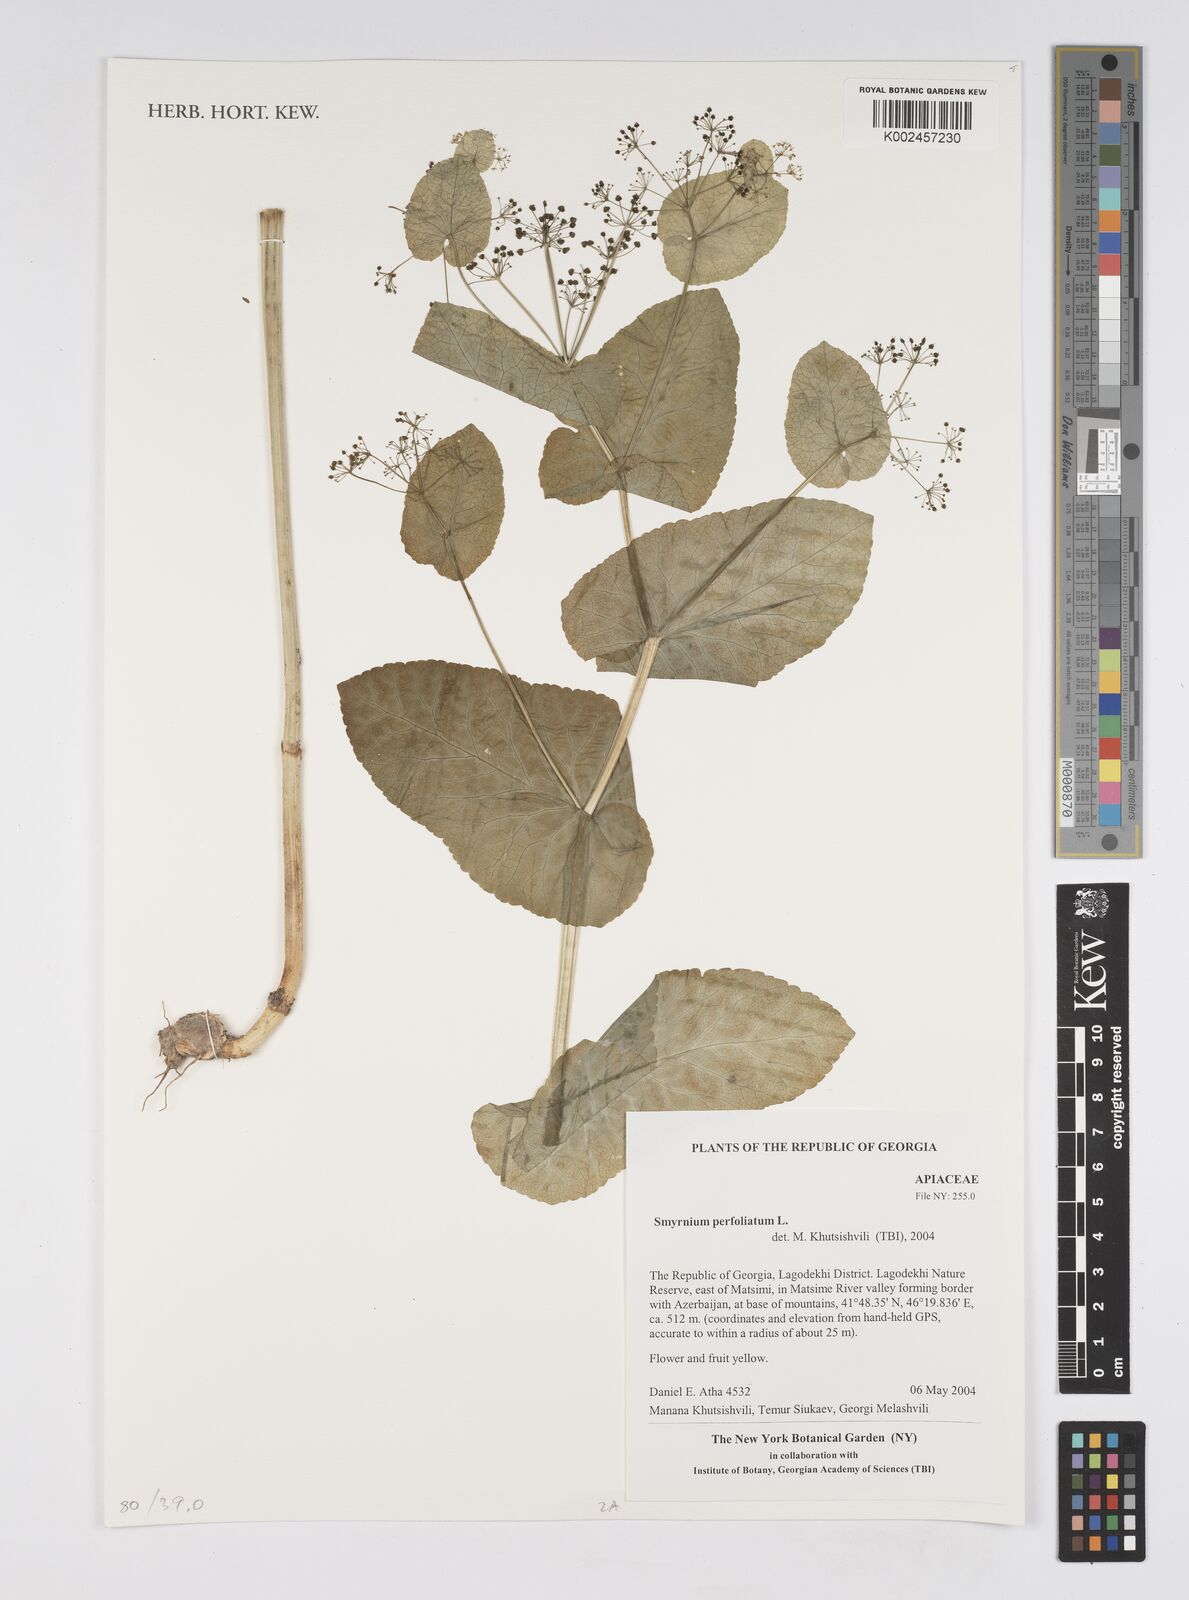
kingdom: Plantae
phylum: Tracheophyta
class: Magnoliopsida
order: Apiales
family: Apiaceae
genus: Smyrnium
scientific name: Smyrnium perfoliatum
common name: Perfoliate alexanders
